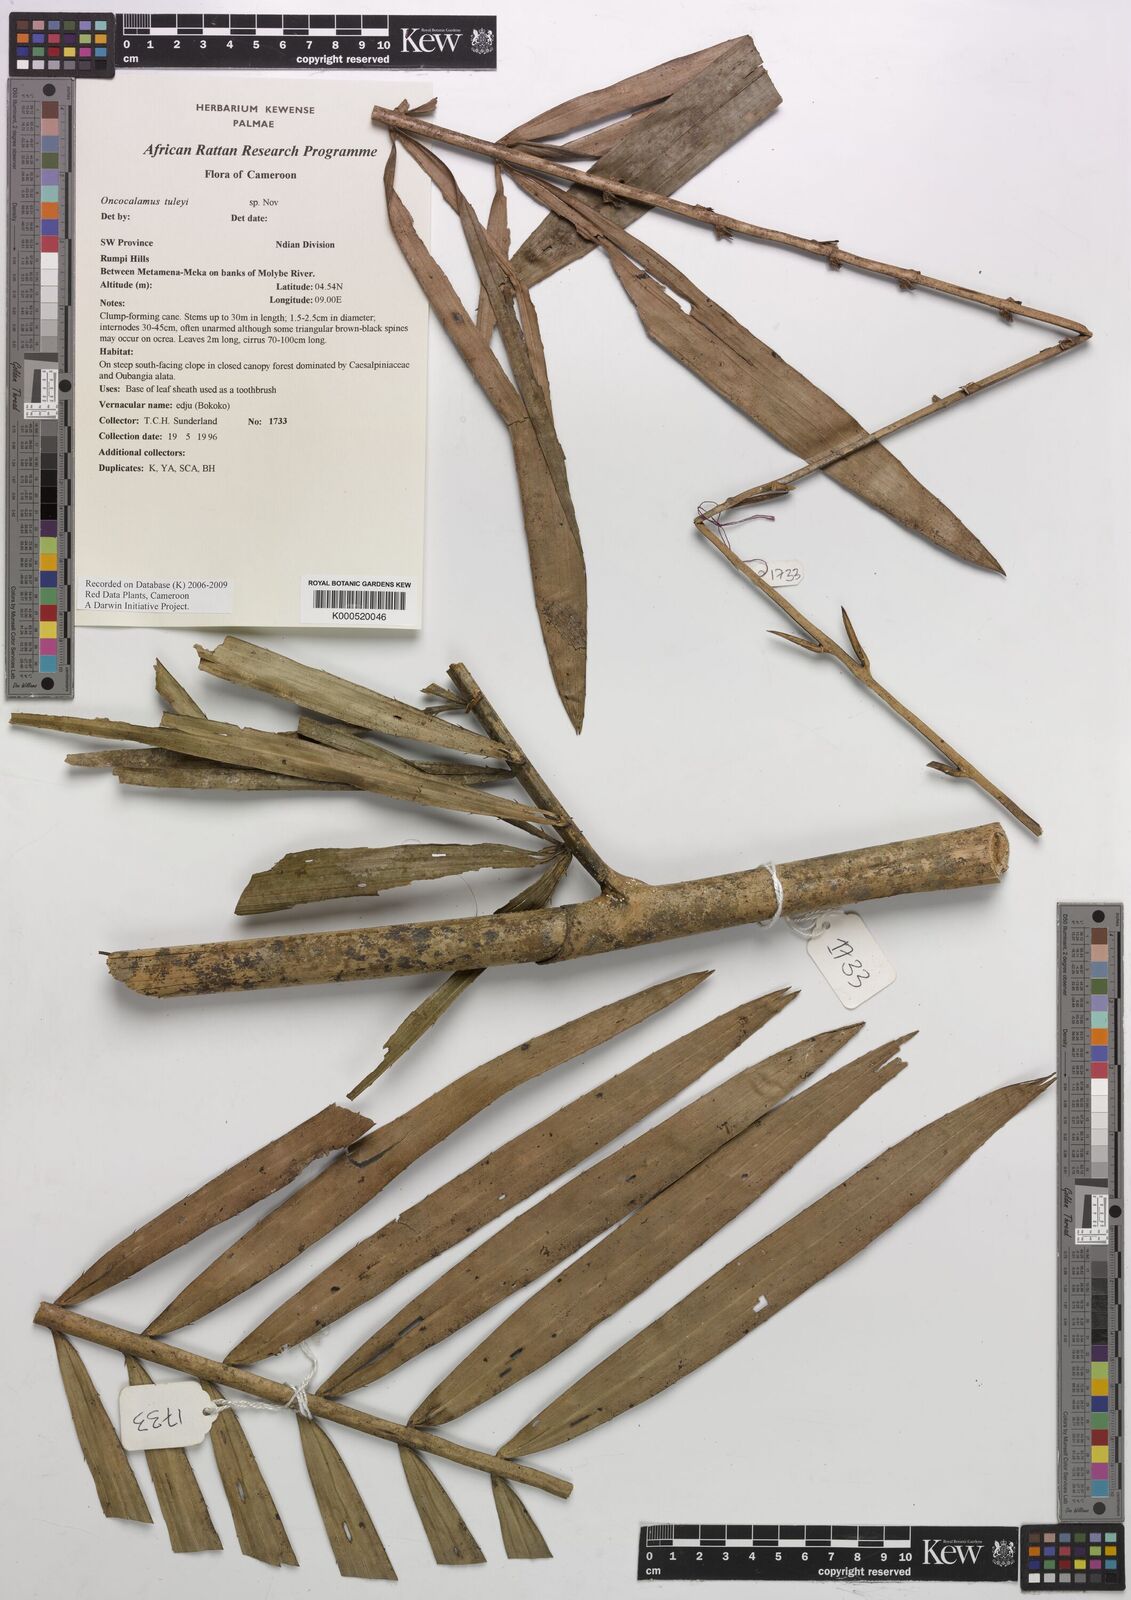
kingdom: Plantae
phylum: Tracheophyta
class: Liliopsida
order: Arecales
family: Arecaceae
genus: Oncocalamus
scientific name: Oncocalamus tuleyi
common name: Rattan
